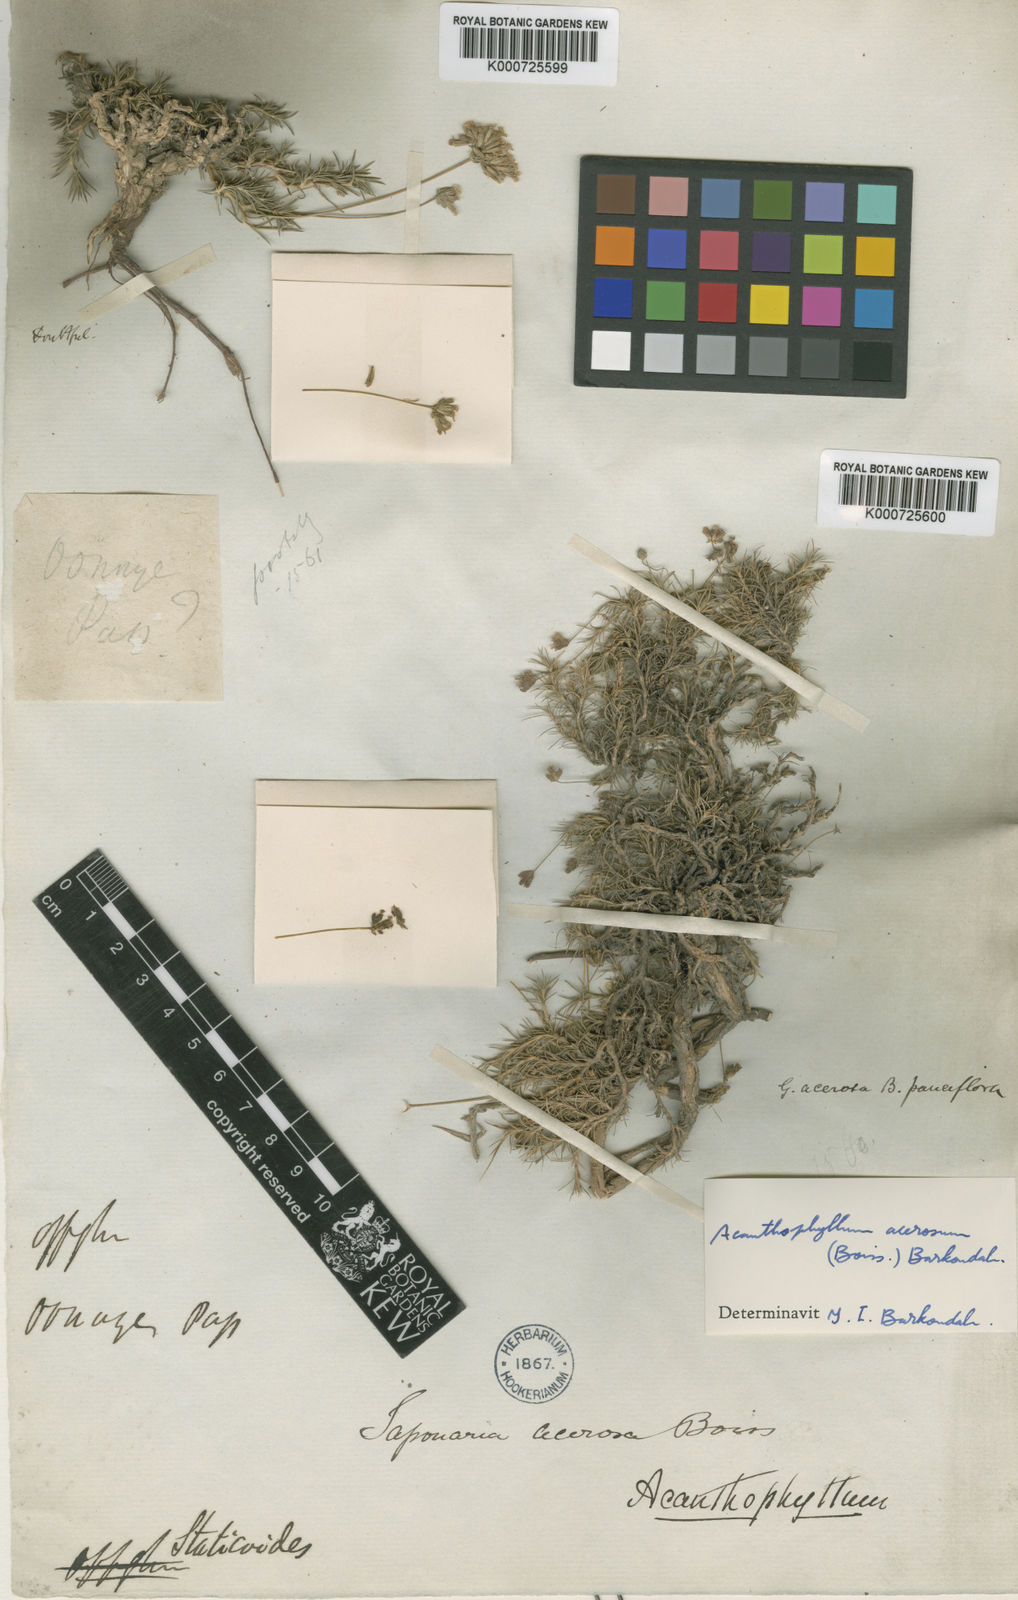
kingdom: Plantae
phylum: Tracheophyta
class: Magnoliopsida
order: Caryophyllales
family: Caryophyllaceae
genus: Acanthophyllum
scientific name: Acanthophyllum
